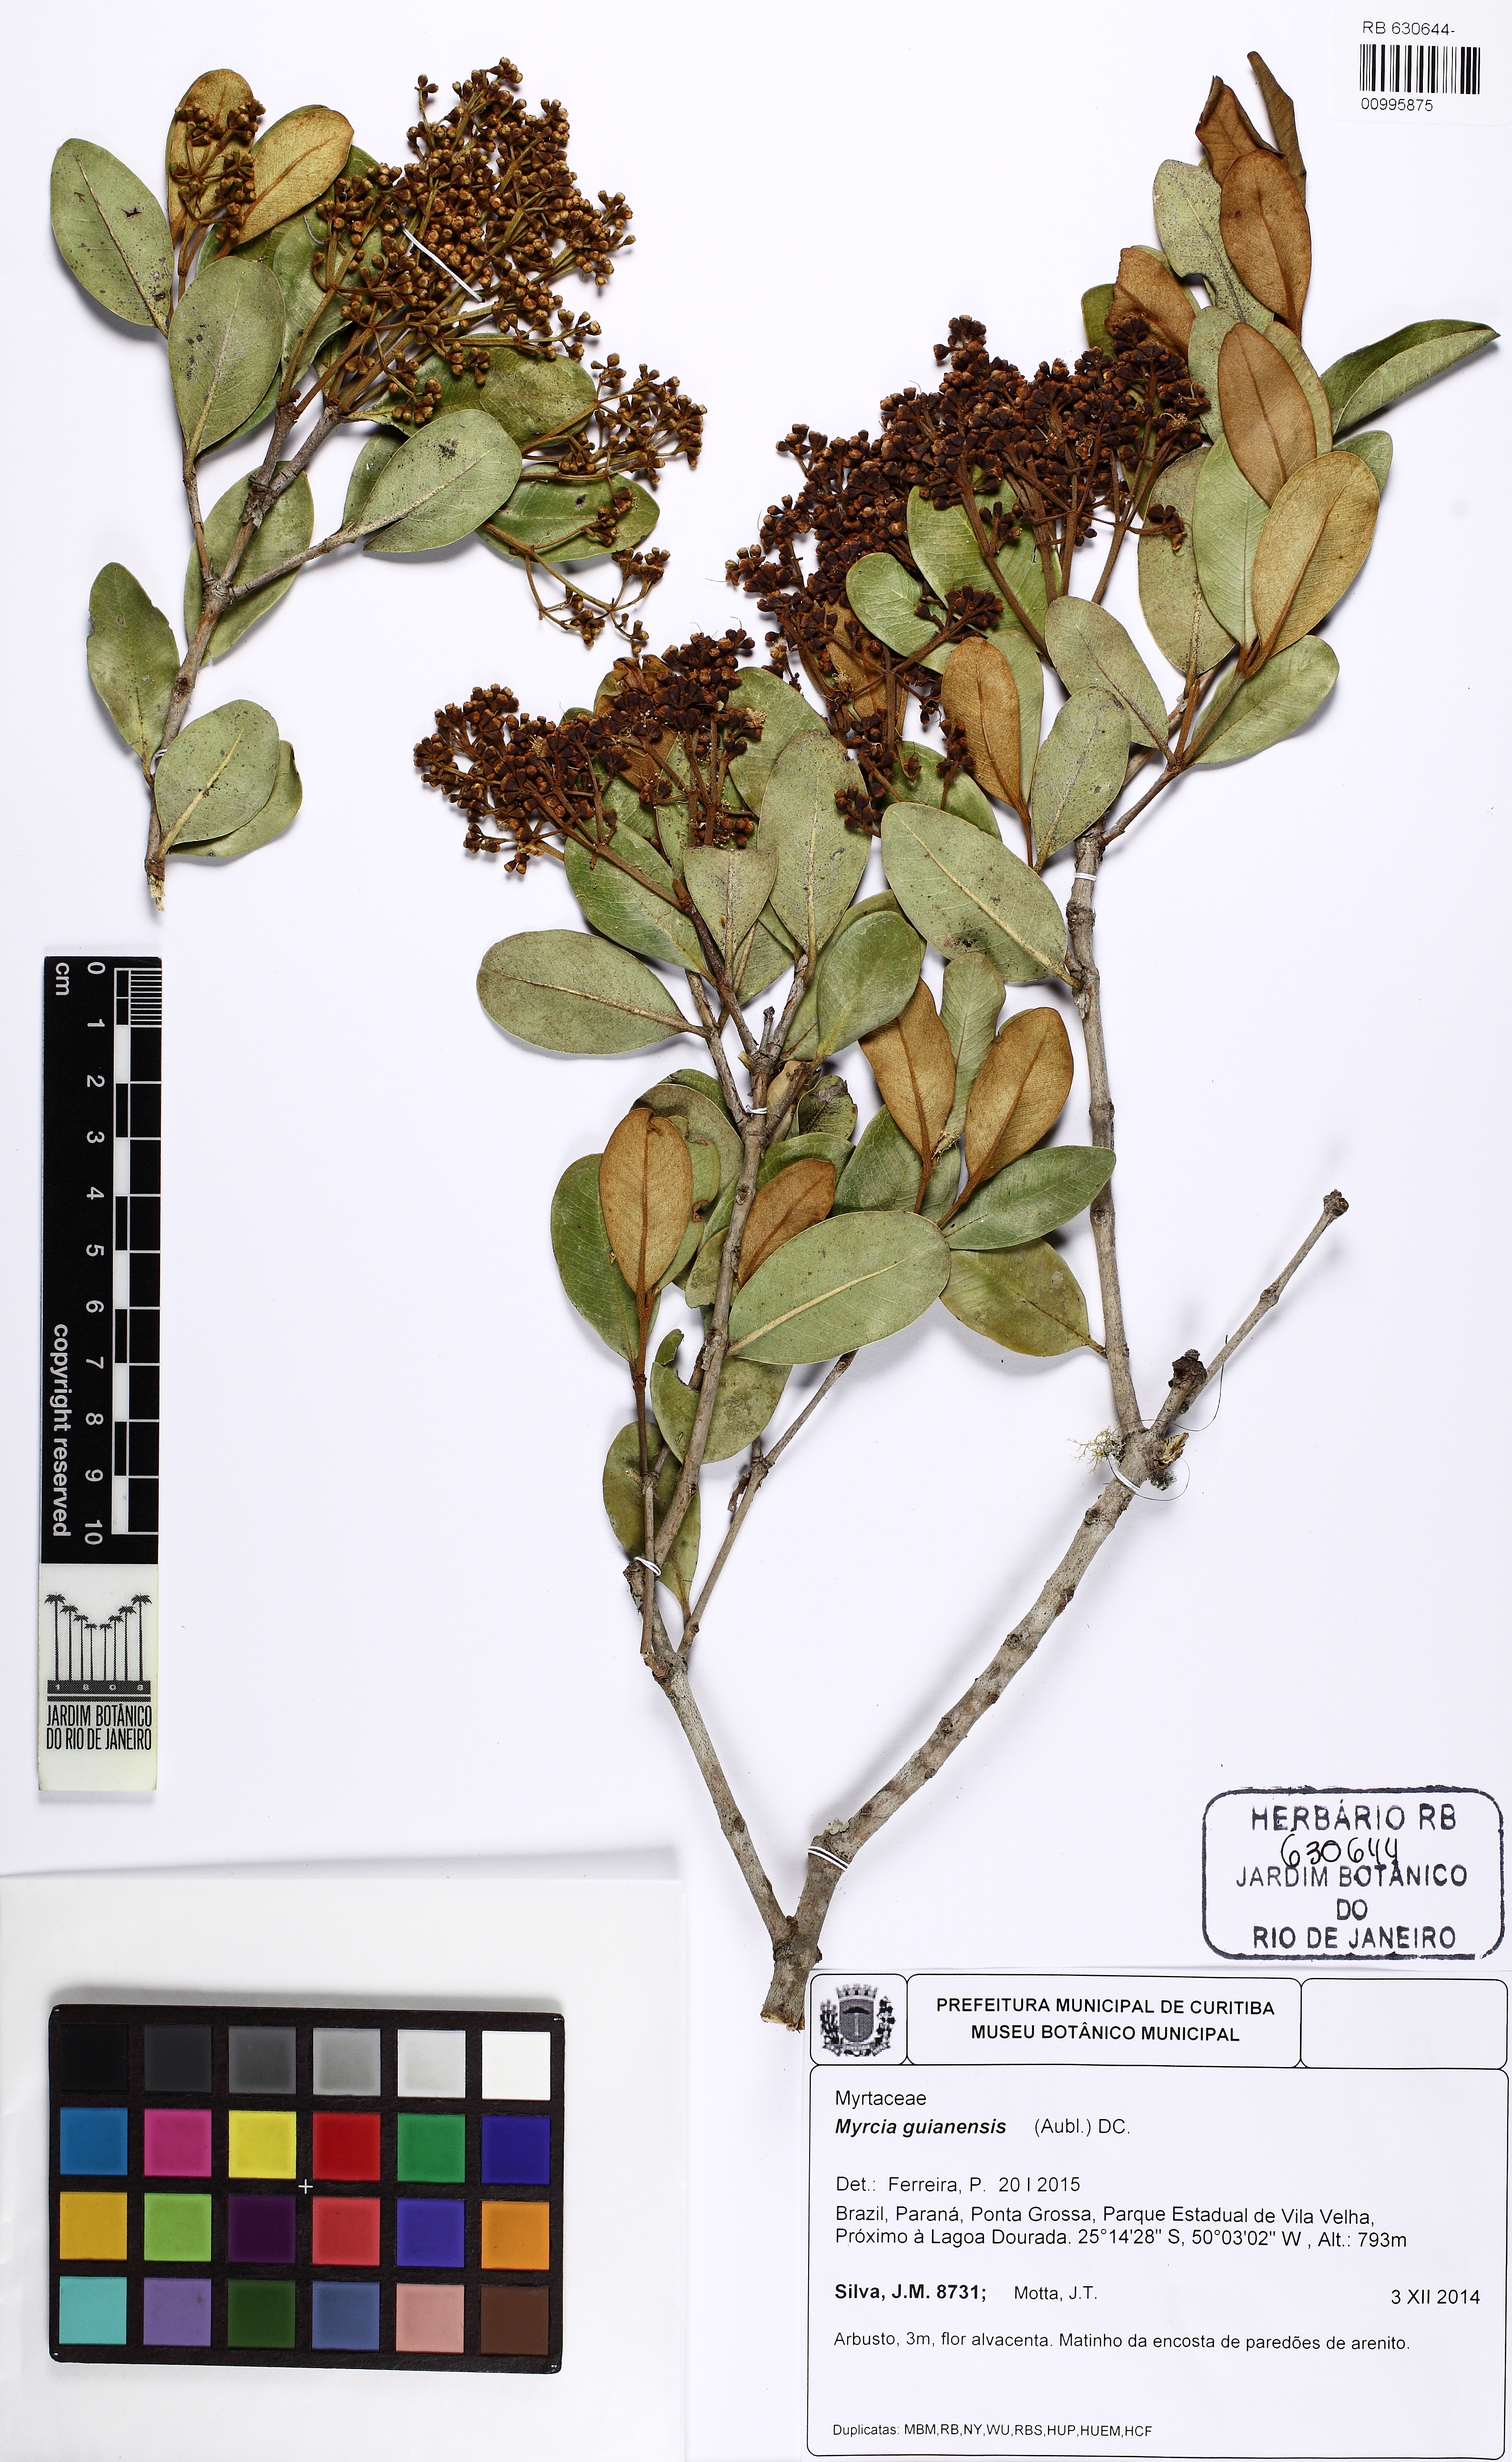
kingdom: Plantae
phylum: Tracheophyta
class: Magnoliopsida
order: Myrtales
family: Myrtaceae
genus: Myrcia
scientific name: Myrcia subcordata
